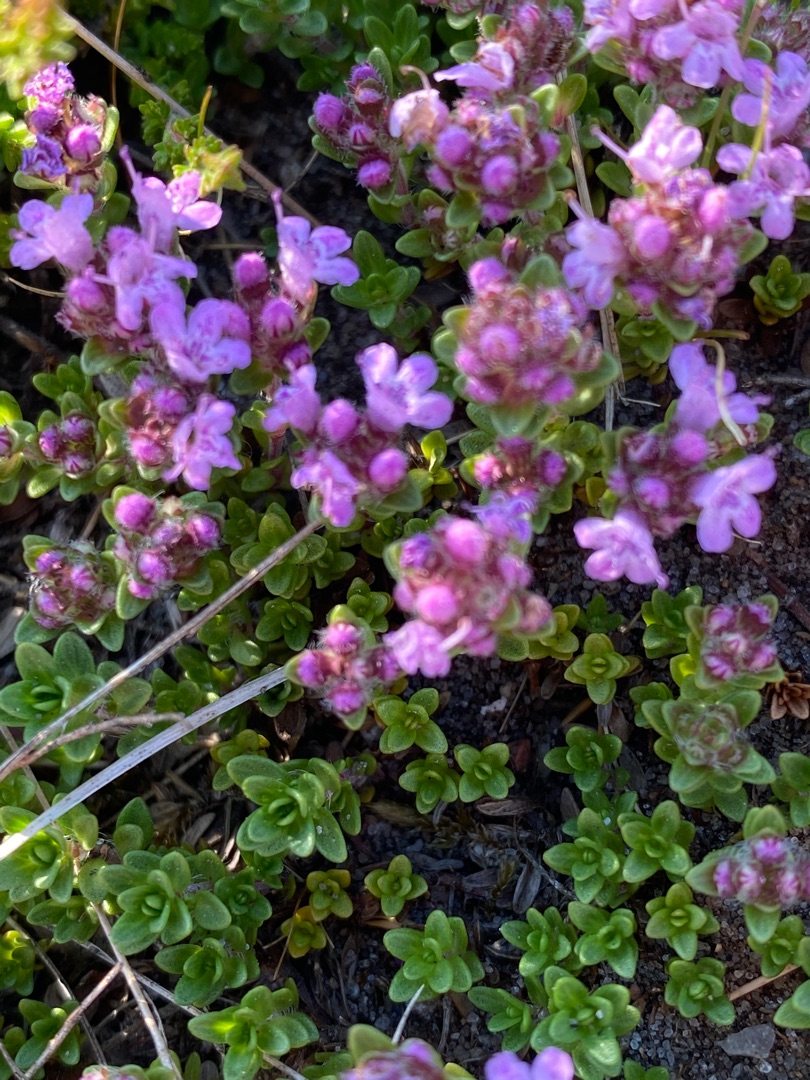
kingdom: Plantae
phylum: Tracheophyta
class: Magnoliopsida
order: Lamiales
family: Lamiaceae
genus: Thymus
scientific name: Thymus serpyllum
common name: Smalbladet timian
